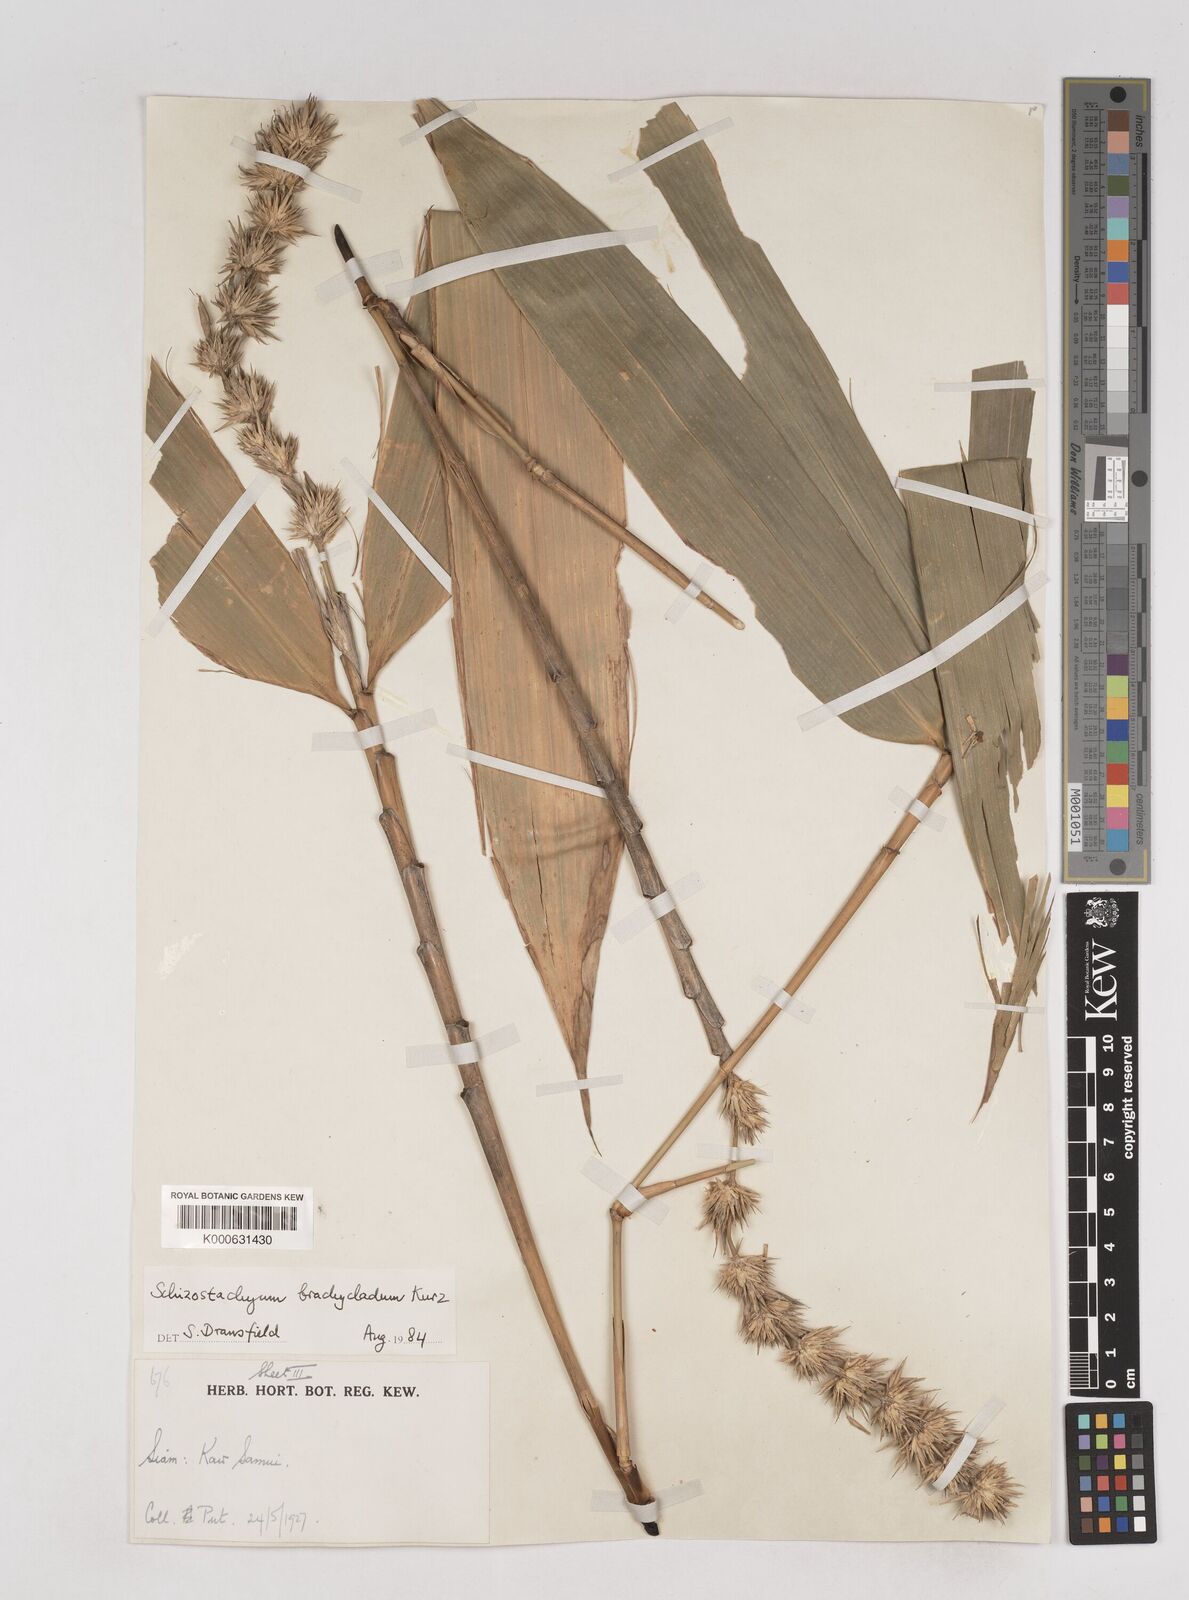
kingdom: Plantae
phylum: Tracheophyta
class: Liliopsida
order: Poales
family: Poaceae
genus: Schizostachyum
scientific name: Schizostachyum brachycladum
